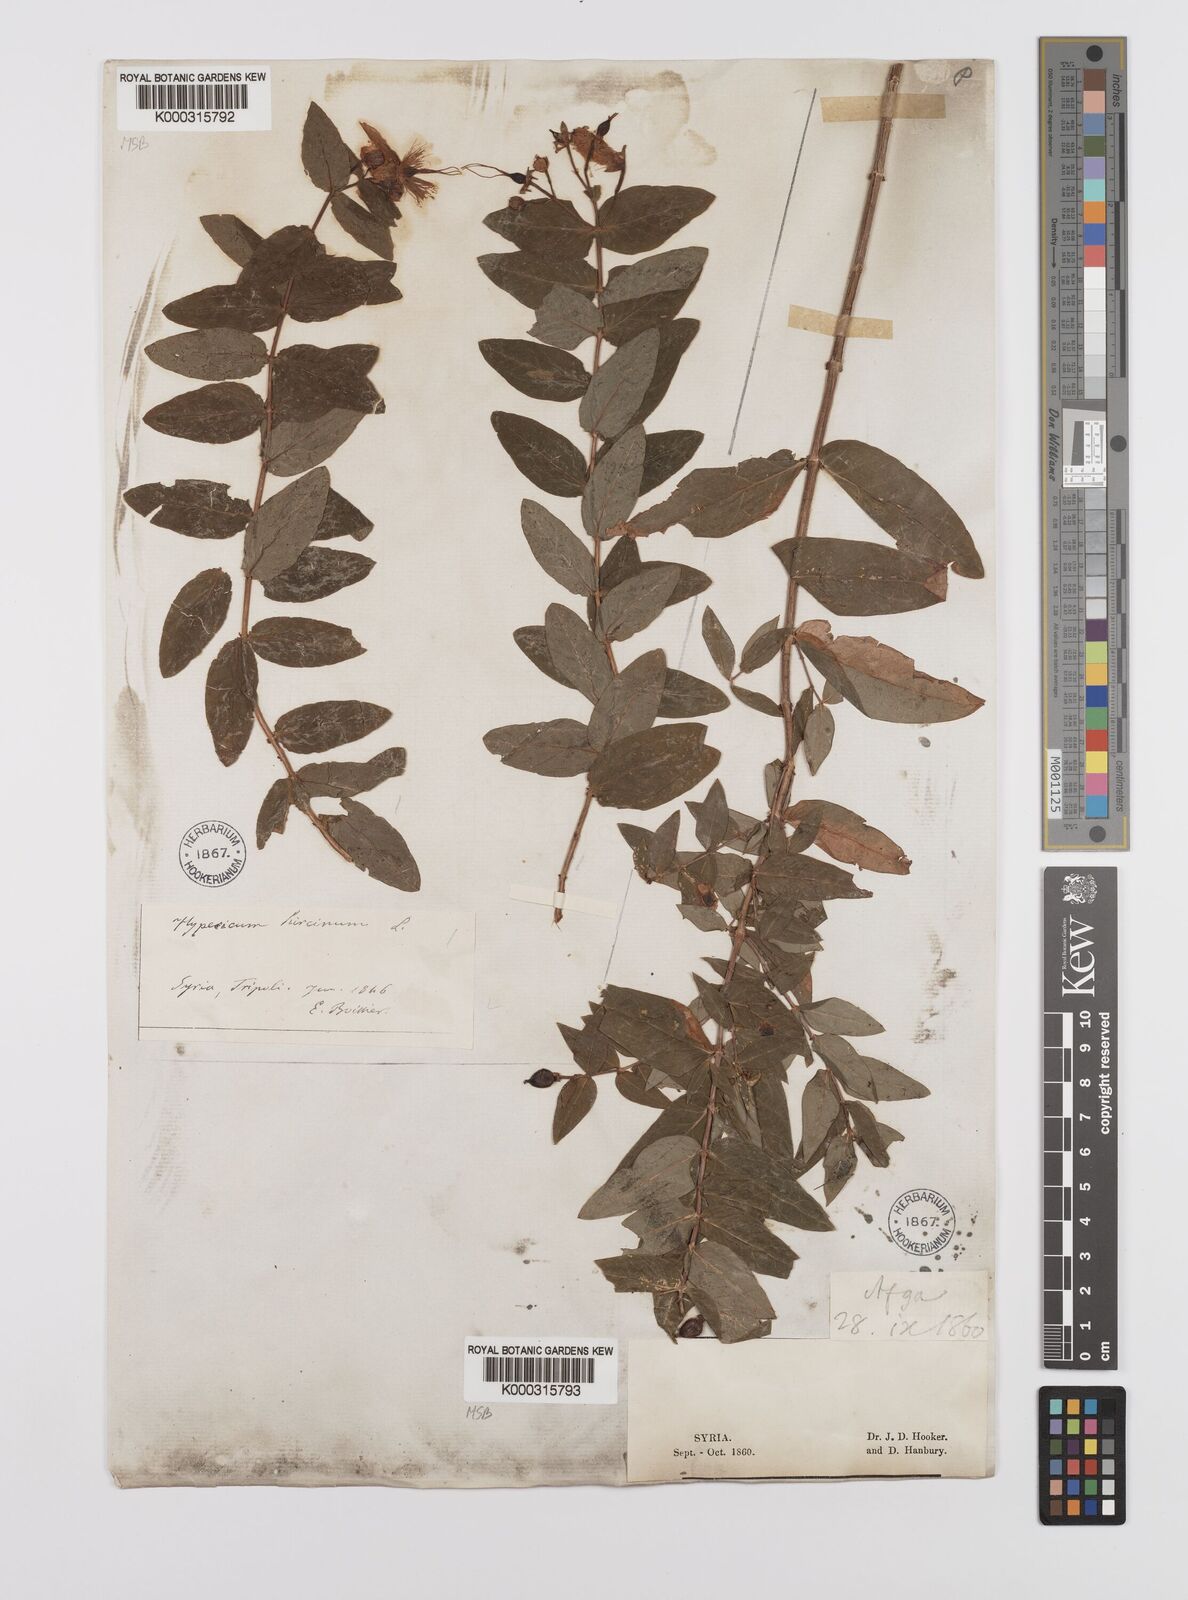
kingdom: Plantae
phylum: Tracheophyta
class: Magnoliopsida
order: Malpighiales
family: Hypericaceae
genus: Hypericum
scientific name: Hypericum hircinum
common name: Stinking tutsan
